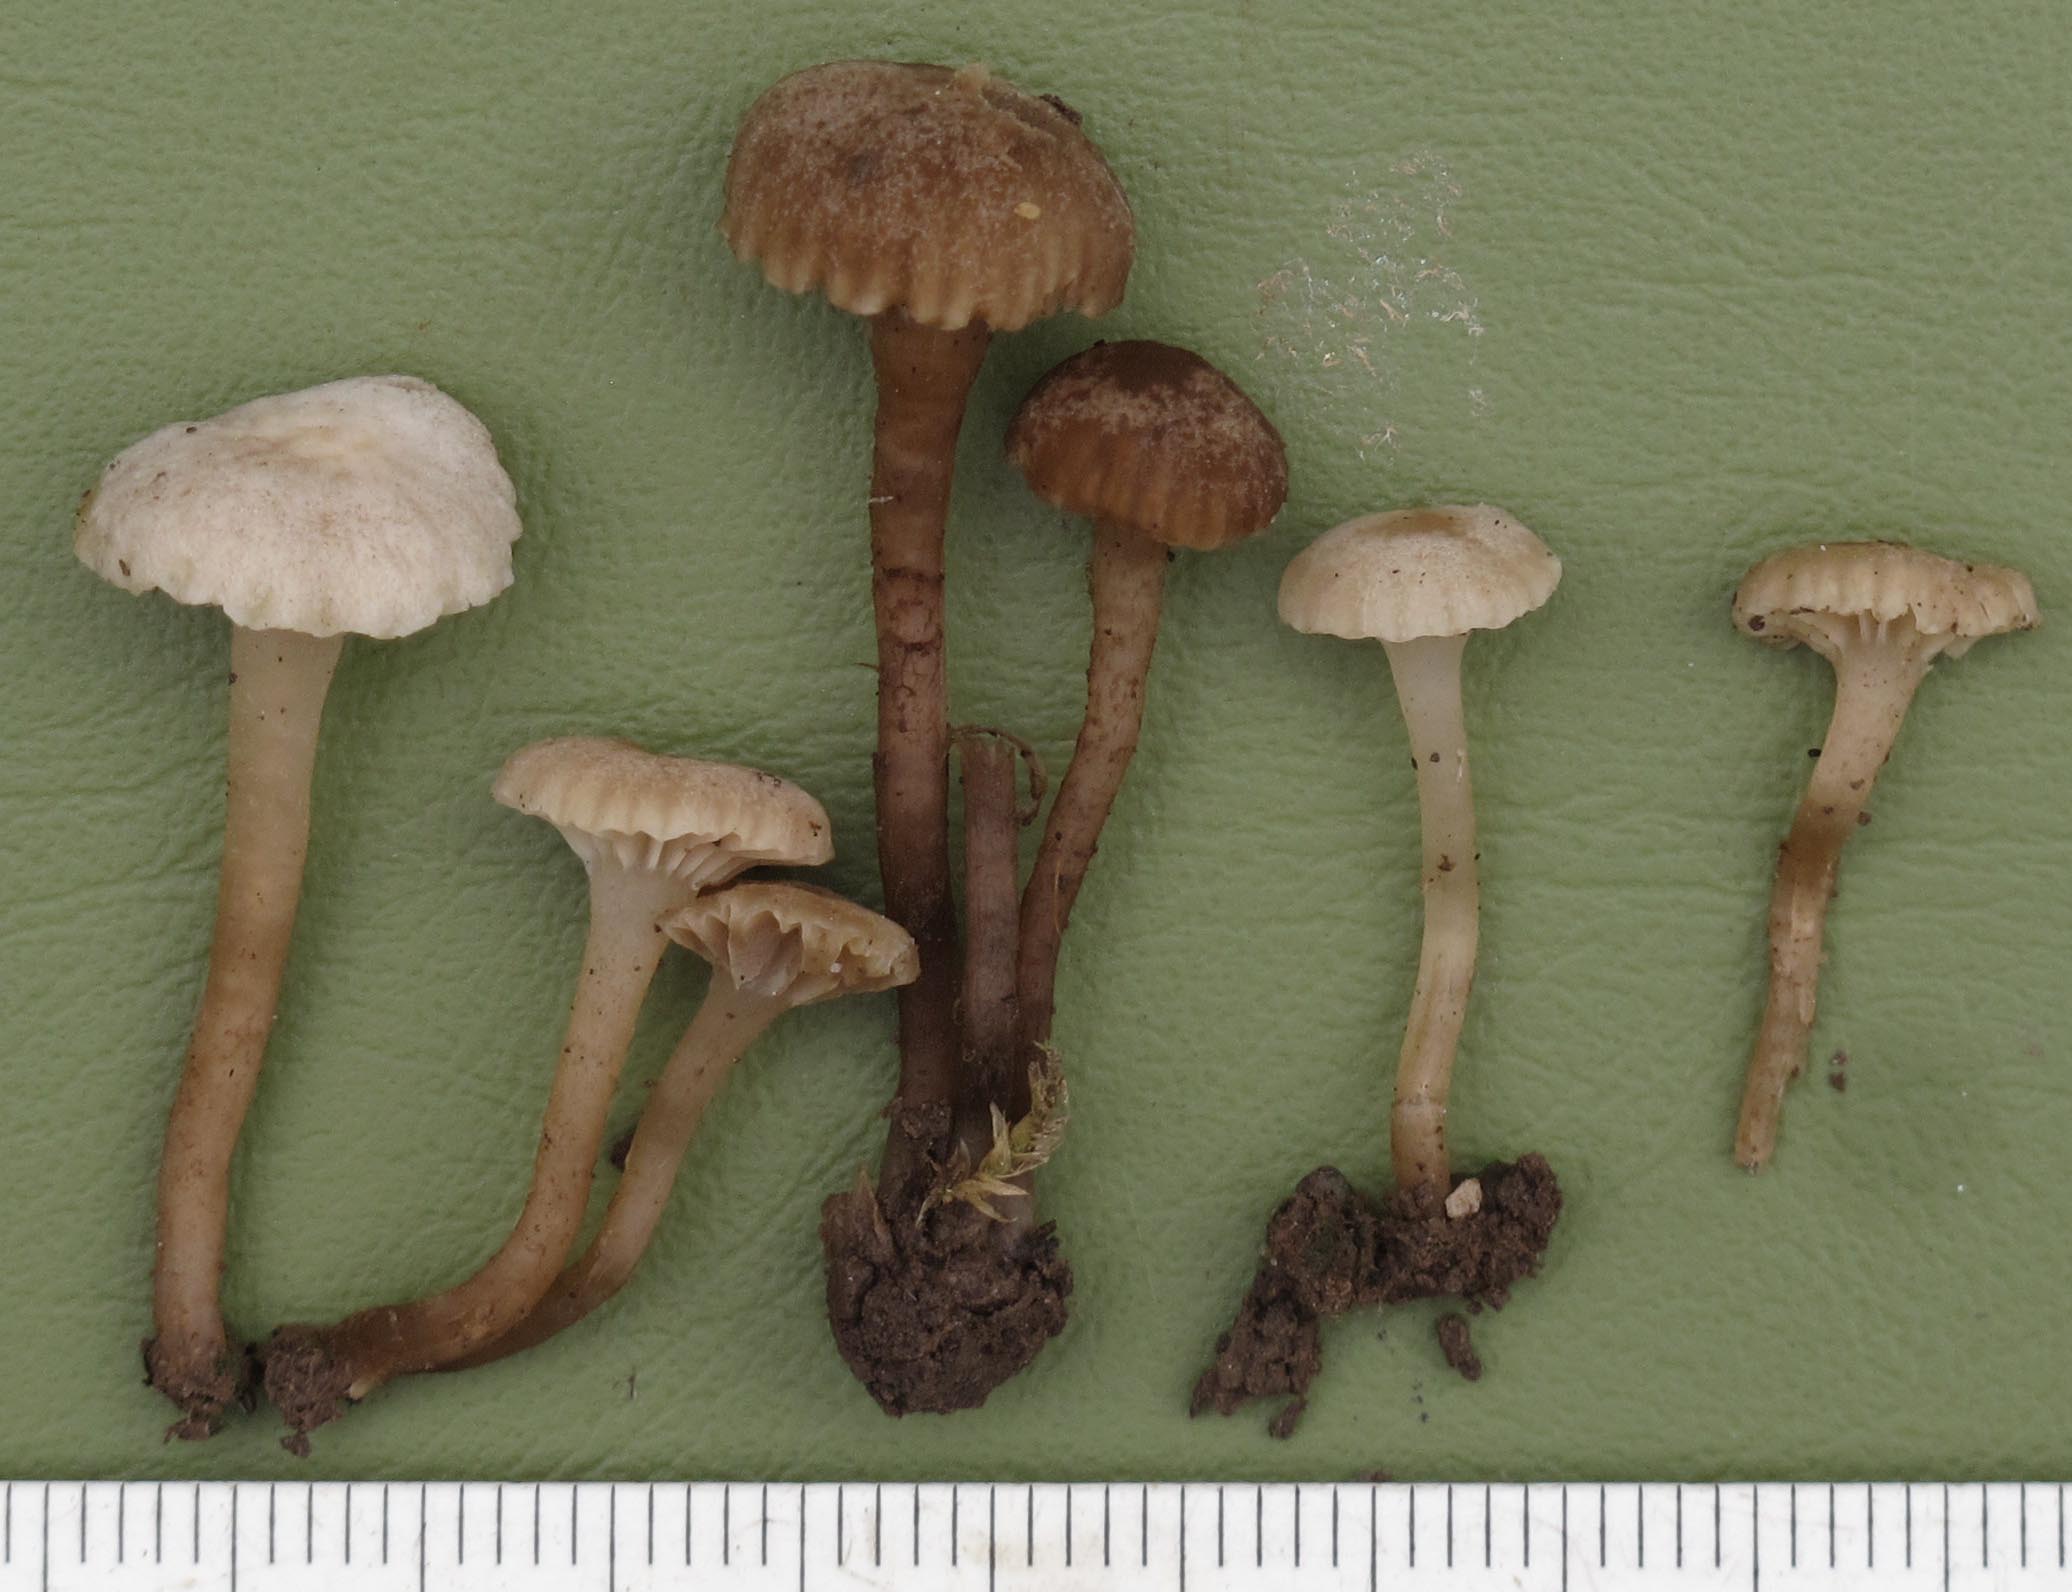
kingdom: Fungi
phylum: Basidiomycota
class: Agaricomycetes
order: Agaricales
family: Clavariaceae
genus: Hodophilus
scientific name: Hodophilus
